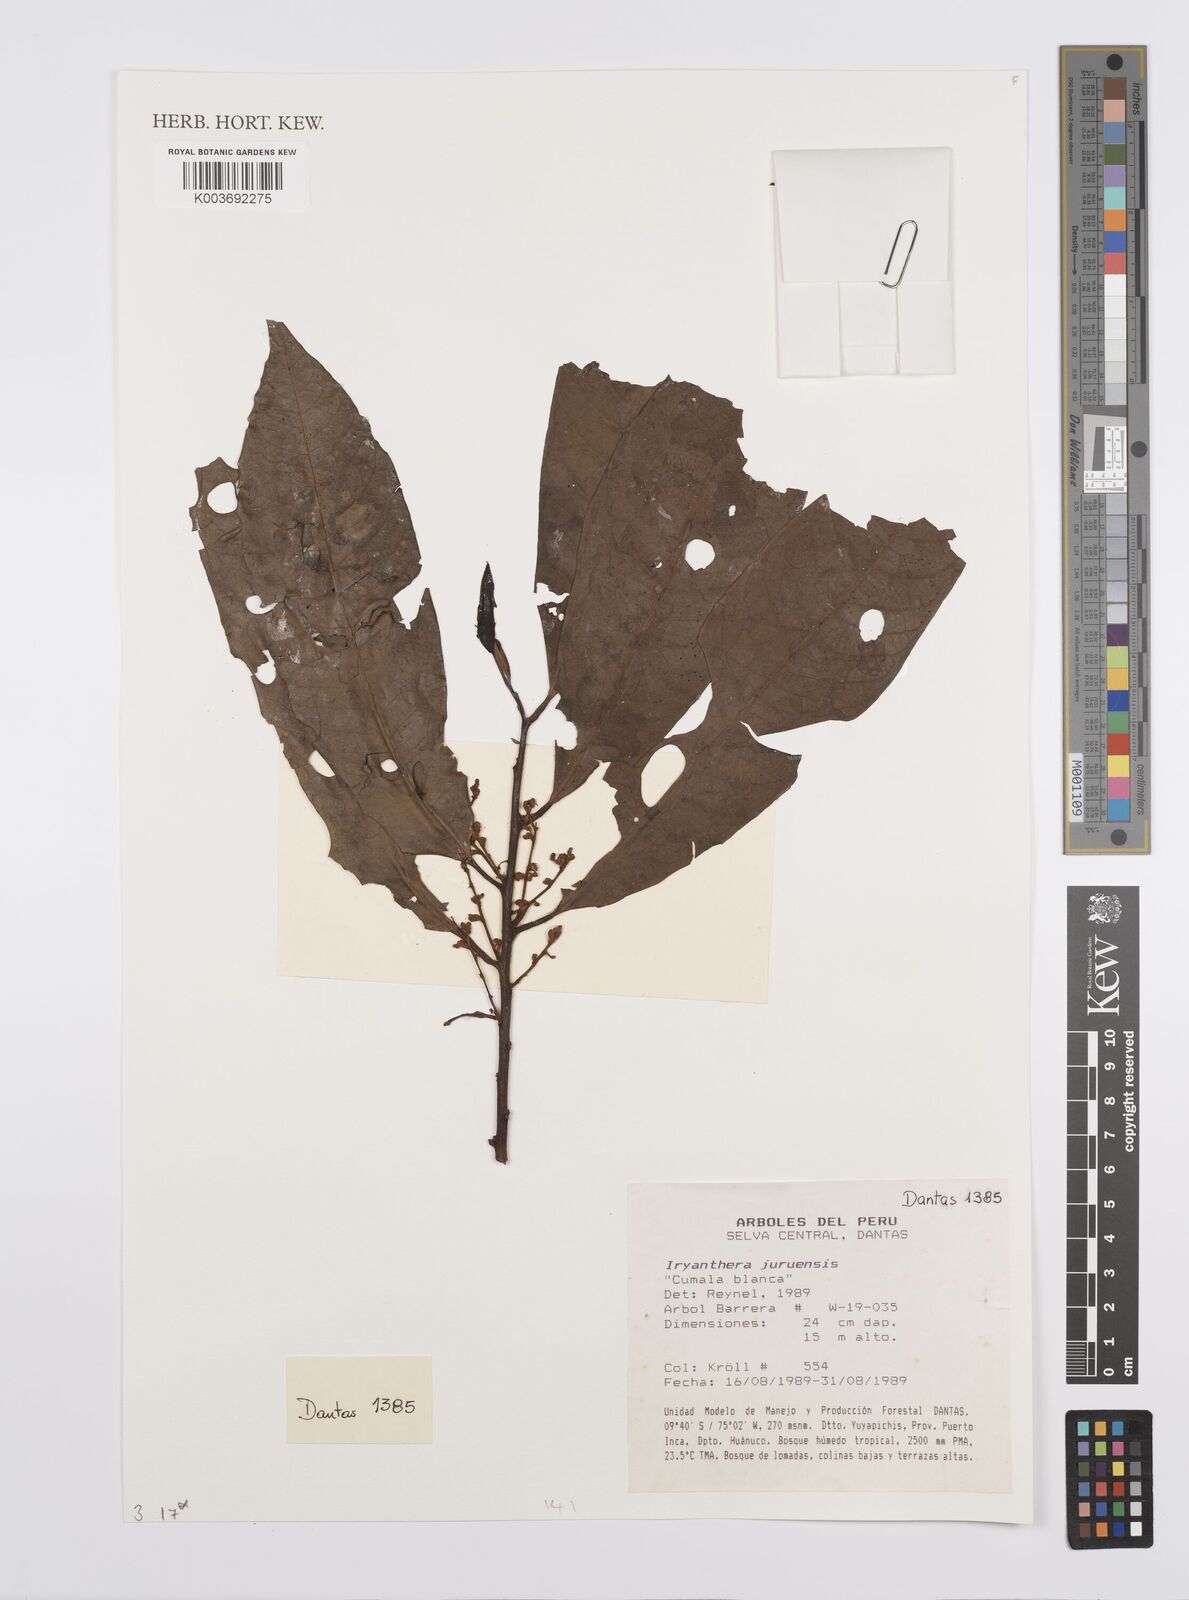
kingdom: Plantae
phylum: Tracheophyta
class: Magnoliopsida
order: Magnoliales
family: Myristicaceae
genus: Iryanthera
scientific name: Iryanthera juruensis
